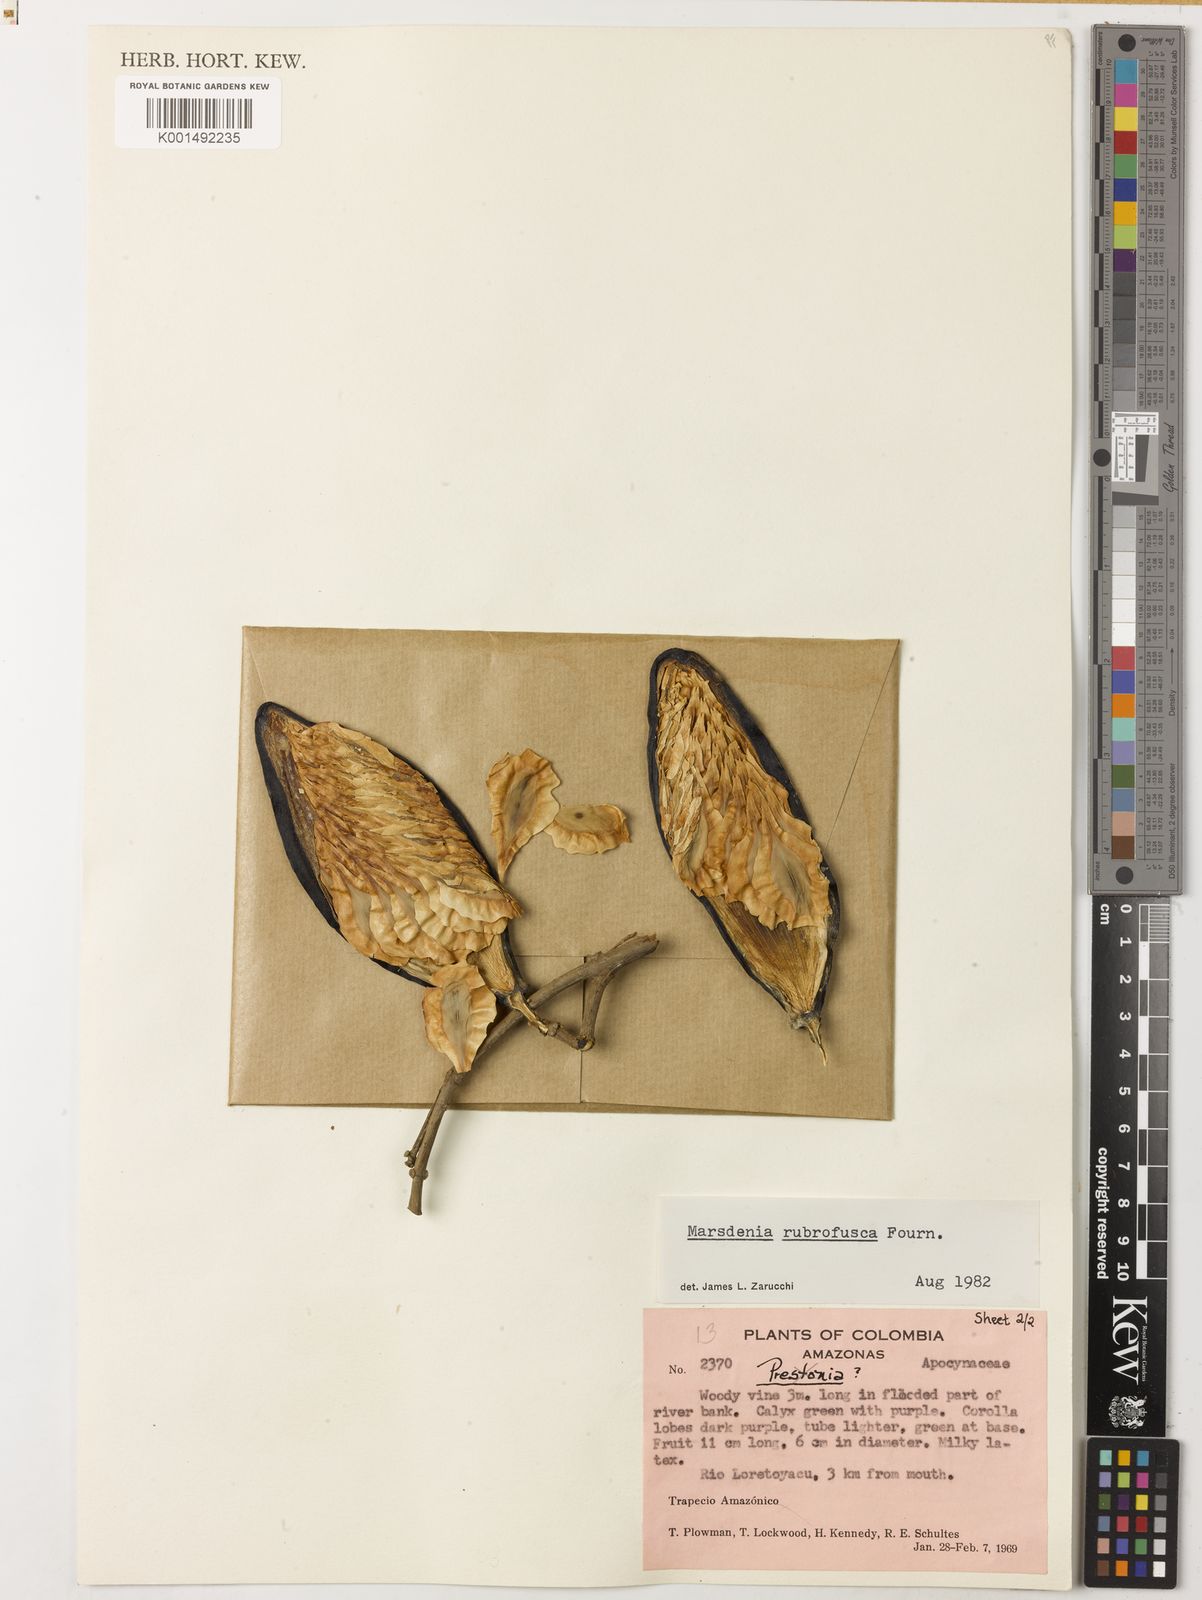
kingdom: Plantae
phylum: Tracheophyta
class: Magnoliopsida
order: Gentianales
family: Apocynaceae
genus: Ruehssia
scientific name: Ruehssia rubrofusca
